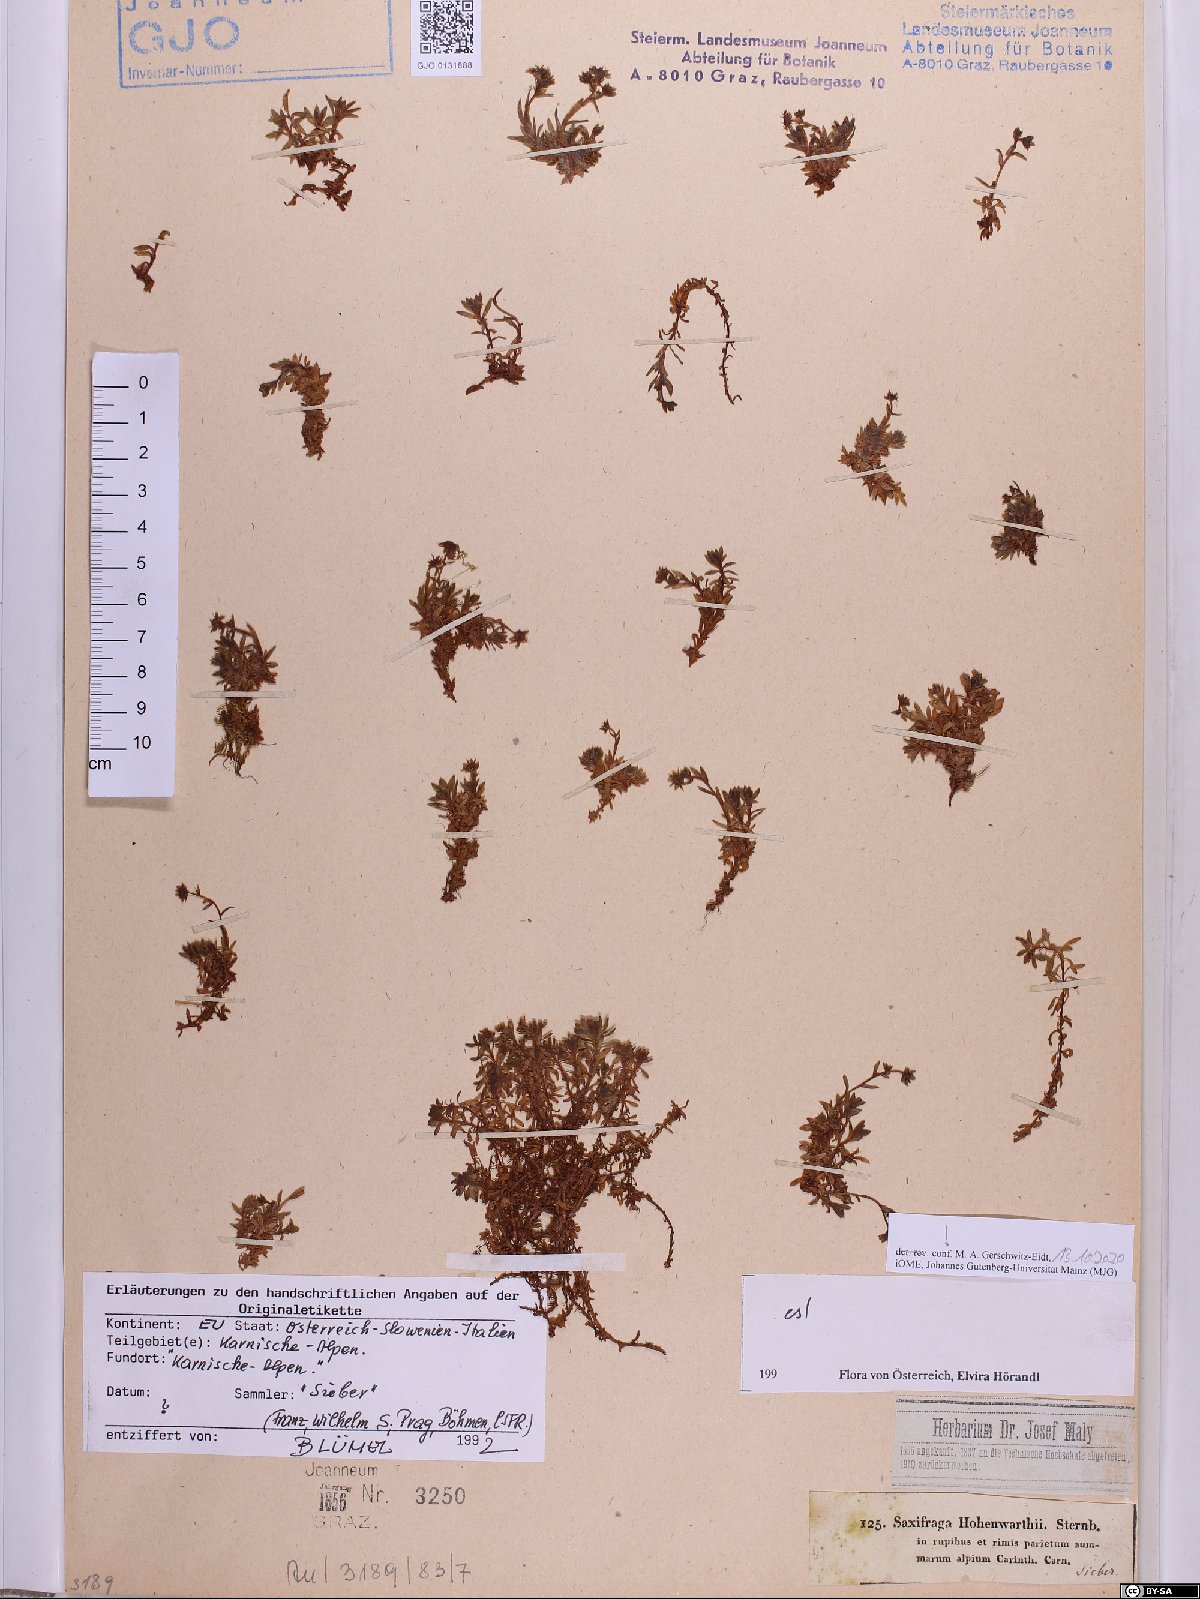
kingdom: Plantae
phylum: Tracheophyta
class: Magnoliopsida
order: Saxifragales
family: Saxifragaceae
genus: Saxifraga
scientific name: Saxifraga hohenwartii
